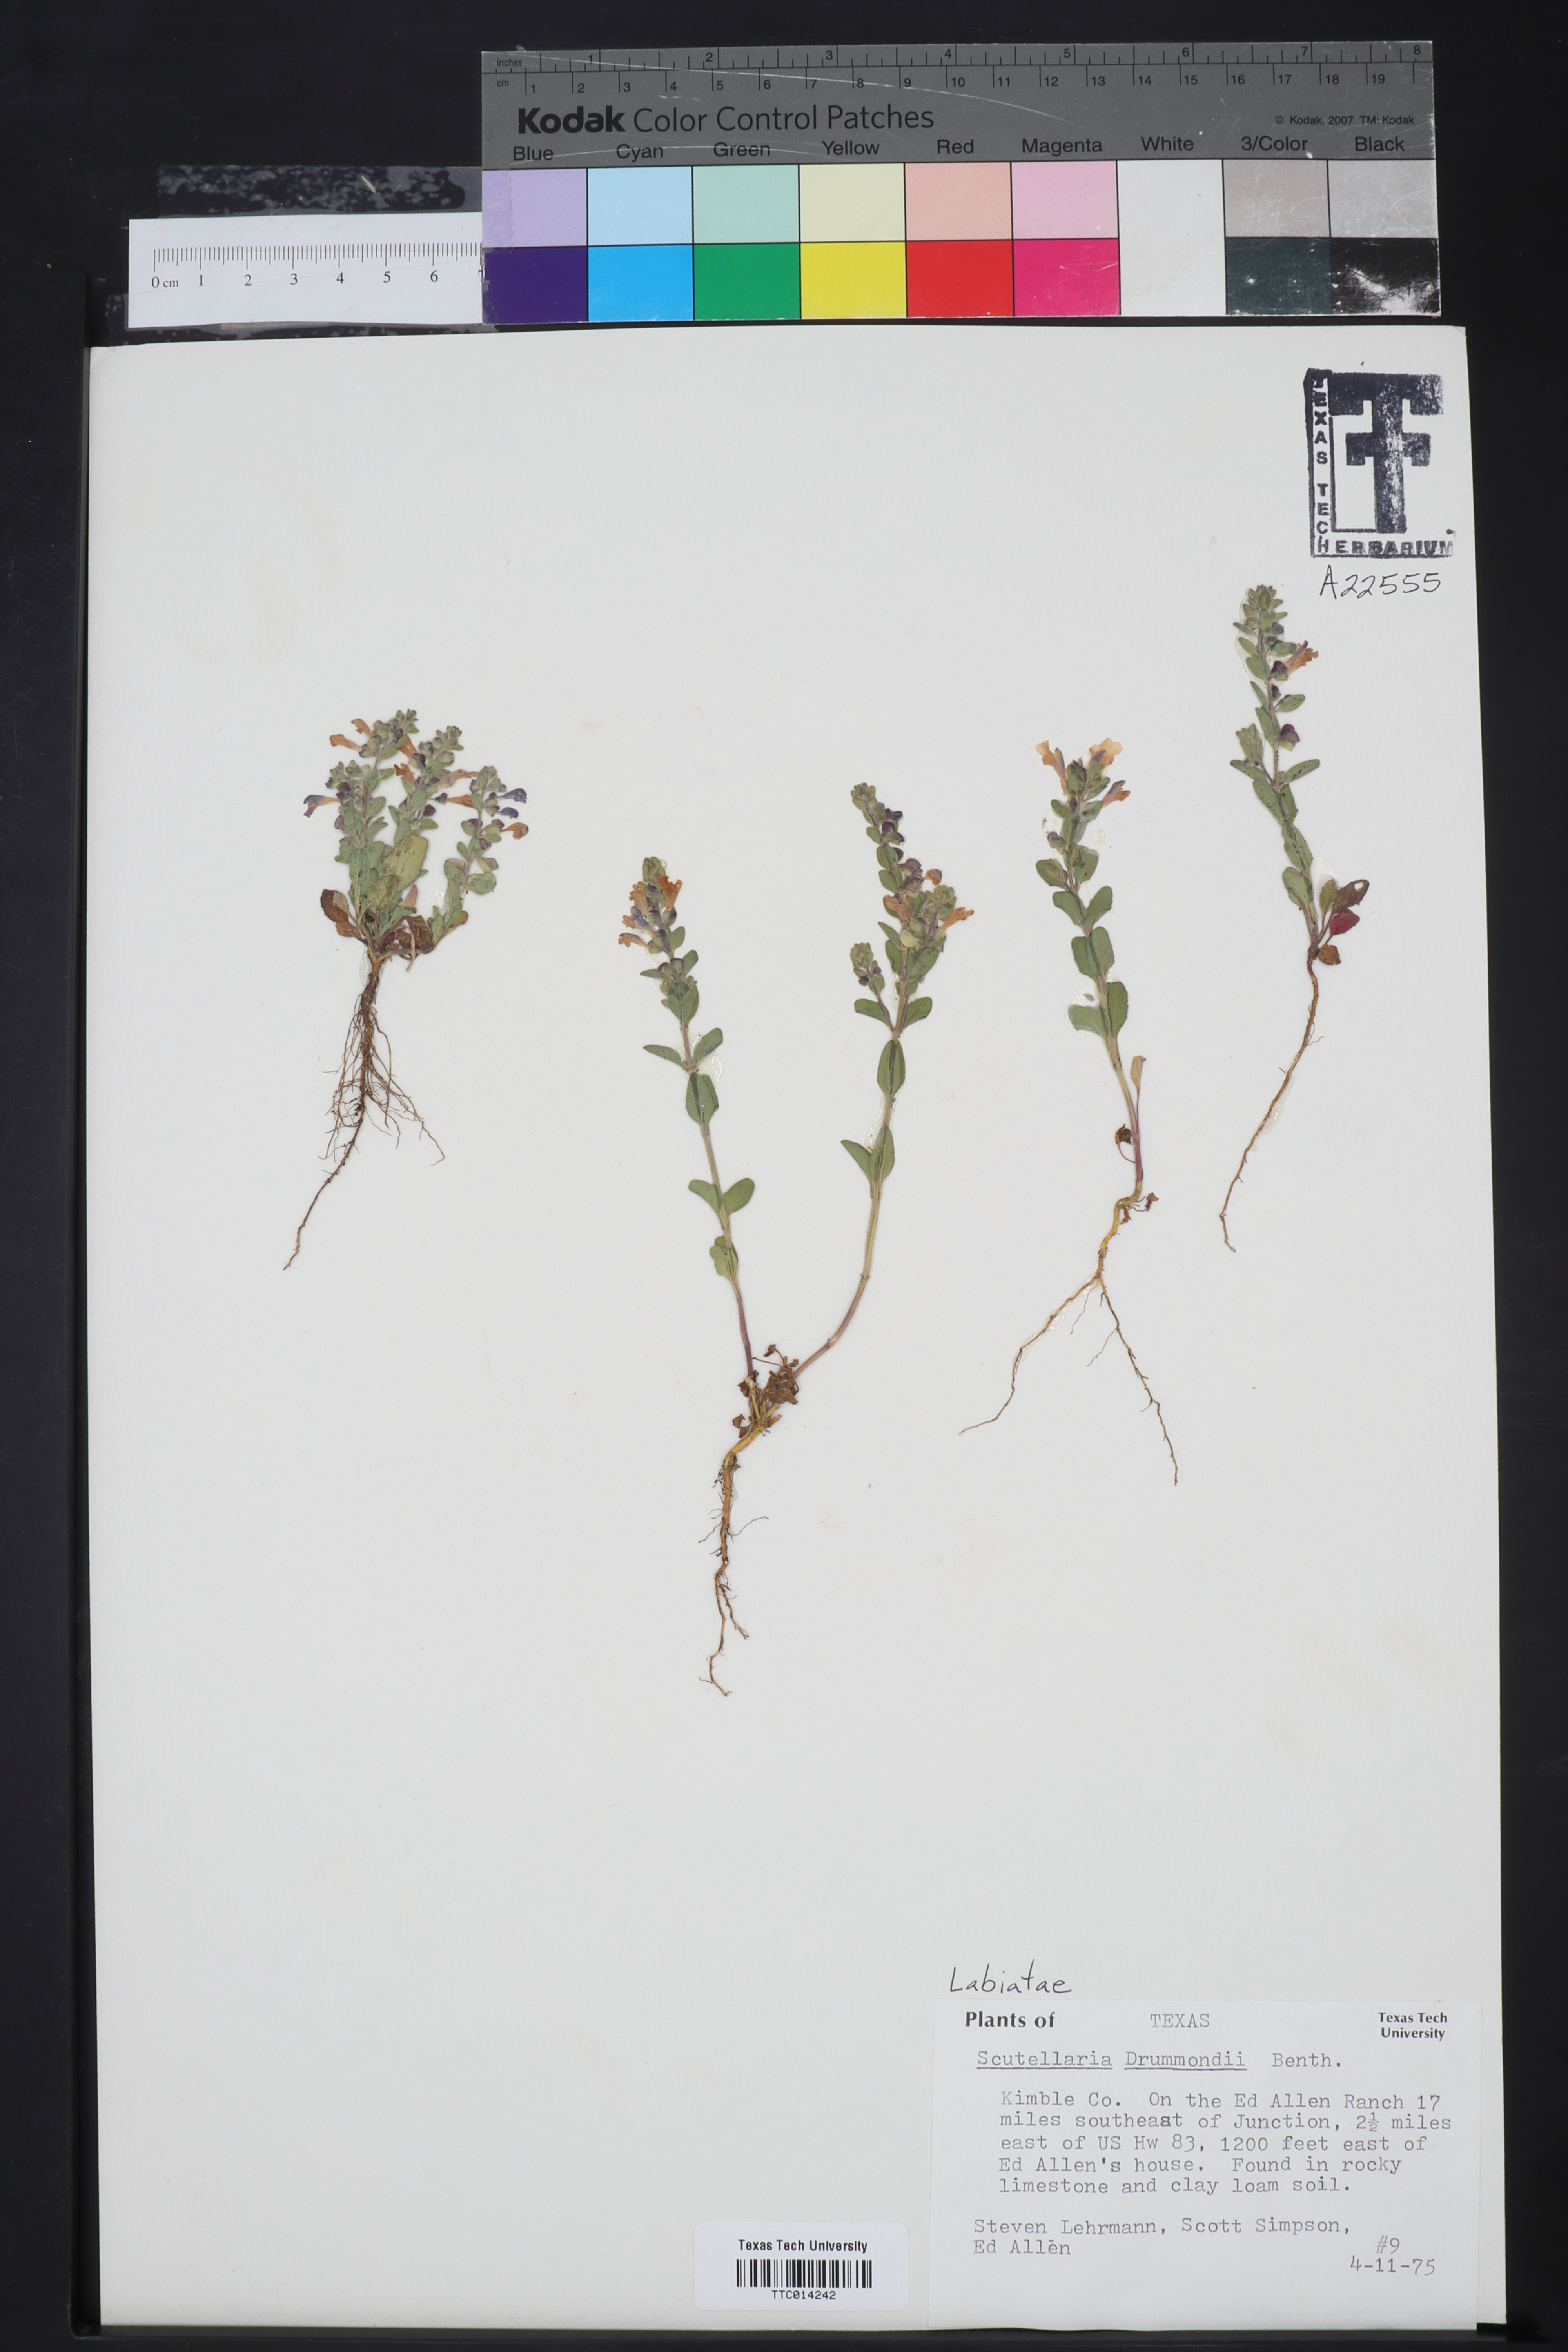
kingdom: Plantae
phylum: Tracheophyta
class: Magnoliopsida
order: Lamiales
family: Lamiaceae
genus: Scutellaria
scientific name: Scutellaria drummondii
